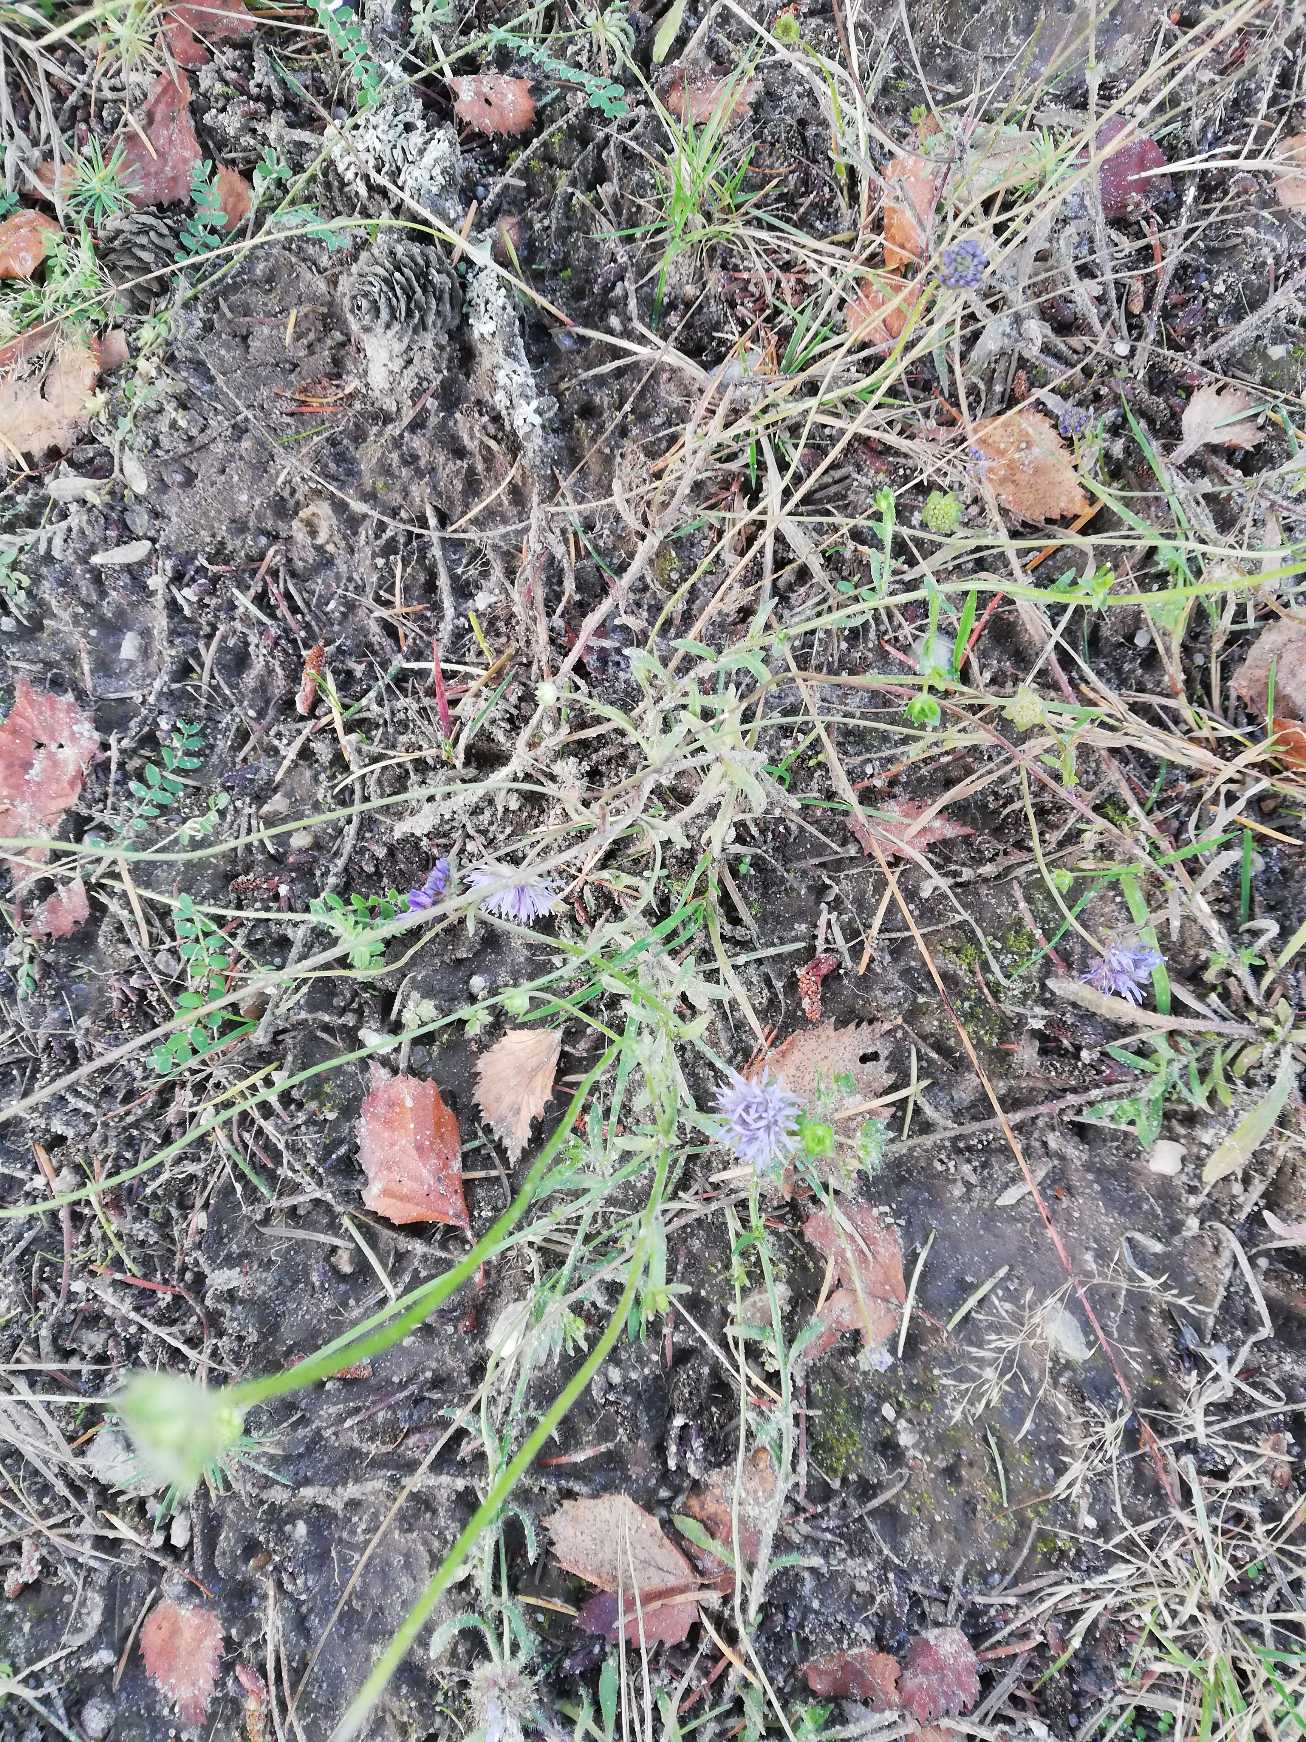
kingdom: Plantae
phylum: Tracheophyta
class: Magnoliopsida
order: Asterales
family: Campanulaceae
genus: Jasione
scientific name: Jasione montana
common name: Blåmunke
